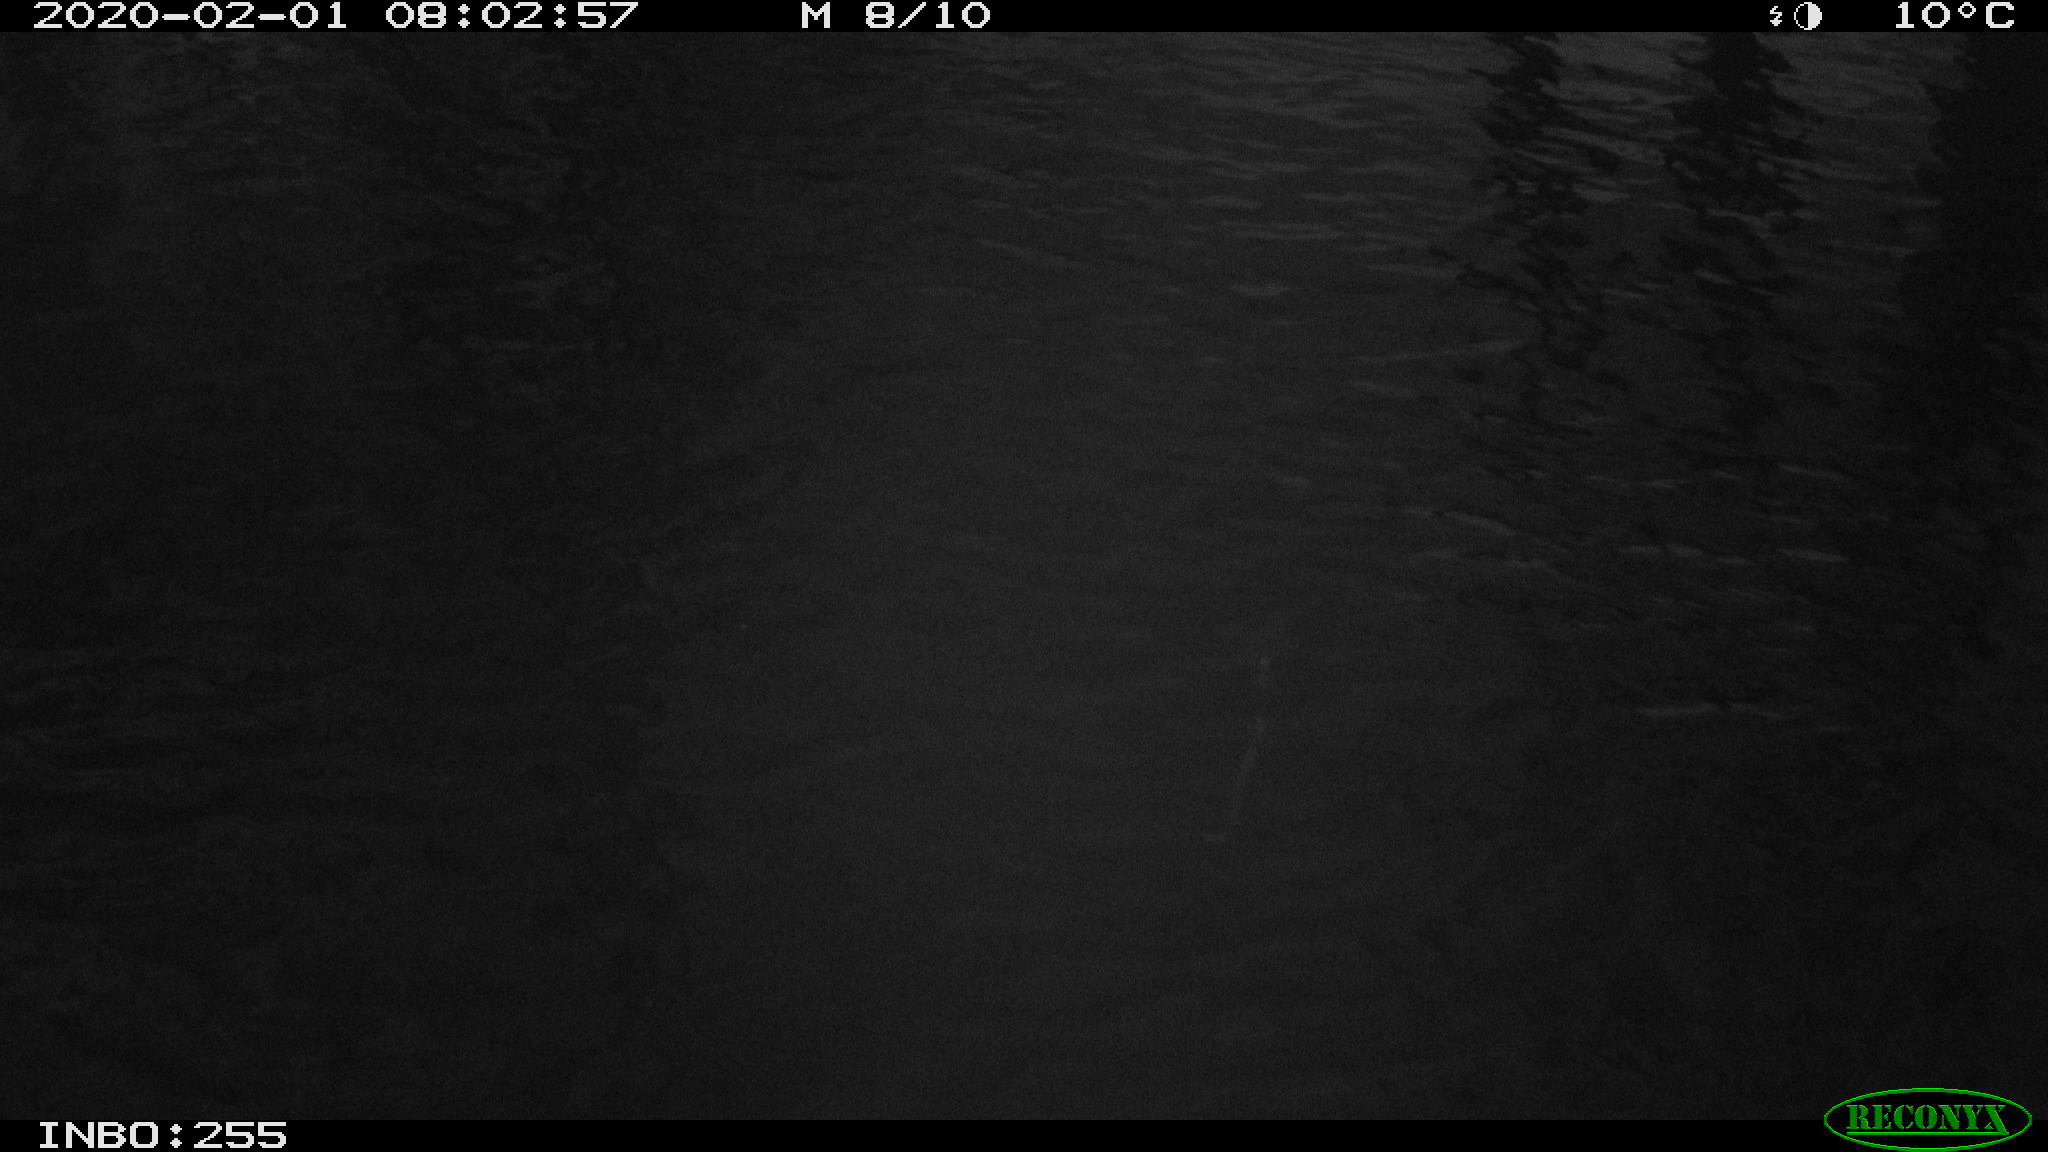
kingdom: Animalia
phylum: Chordata
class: Aves
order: Gruiformes
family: Rallidae
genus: Gallinula
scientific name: Gallinula chloropus
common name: Common moorhen
